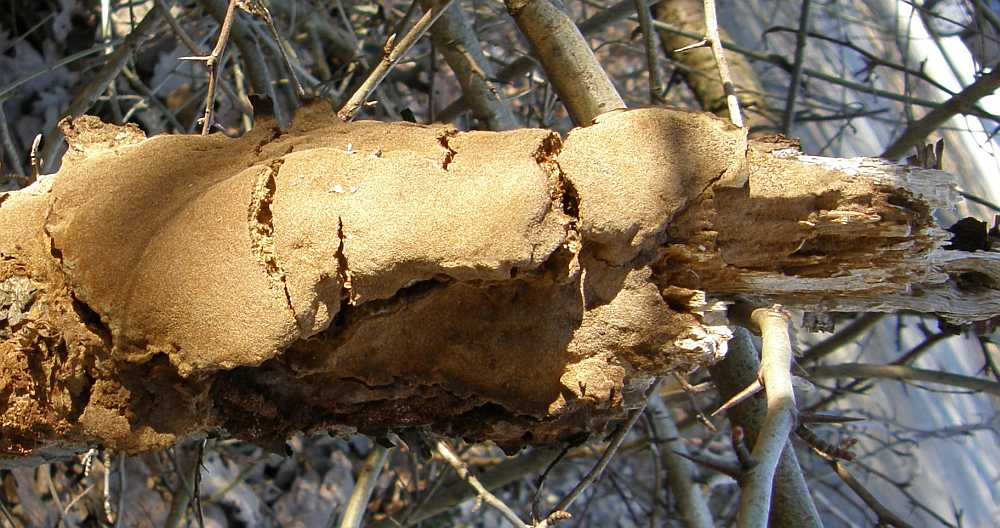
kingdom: Fungi
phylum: Basidiomycota
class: Agaricomycetes
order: Hymenochaetales
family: Hymenochaetaceae
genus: Fuscoporia
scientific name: Fuscoporia ferrea
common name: skorpe-ildporesvamp
